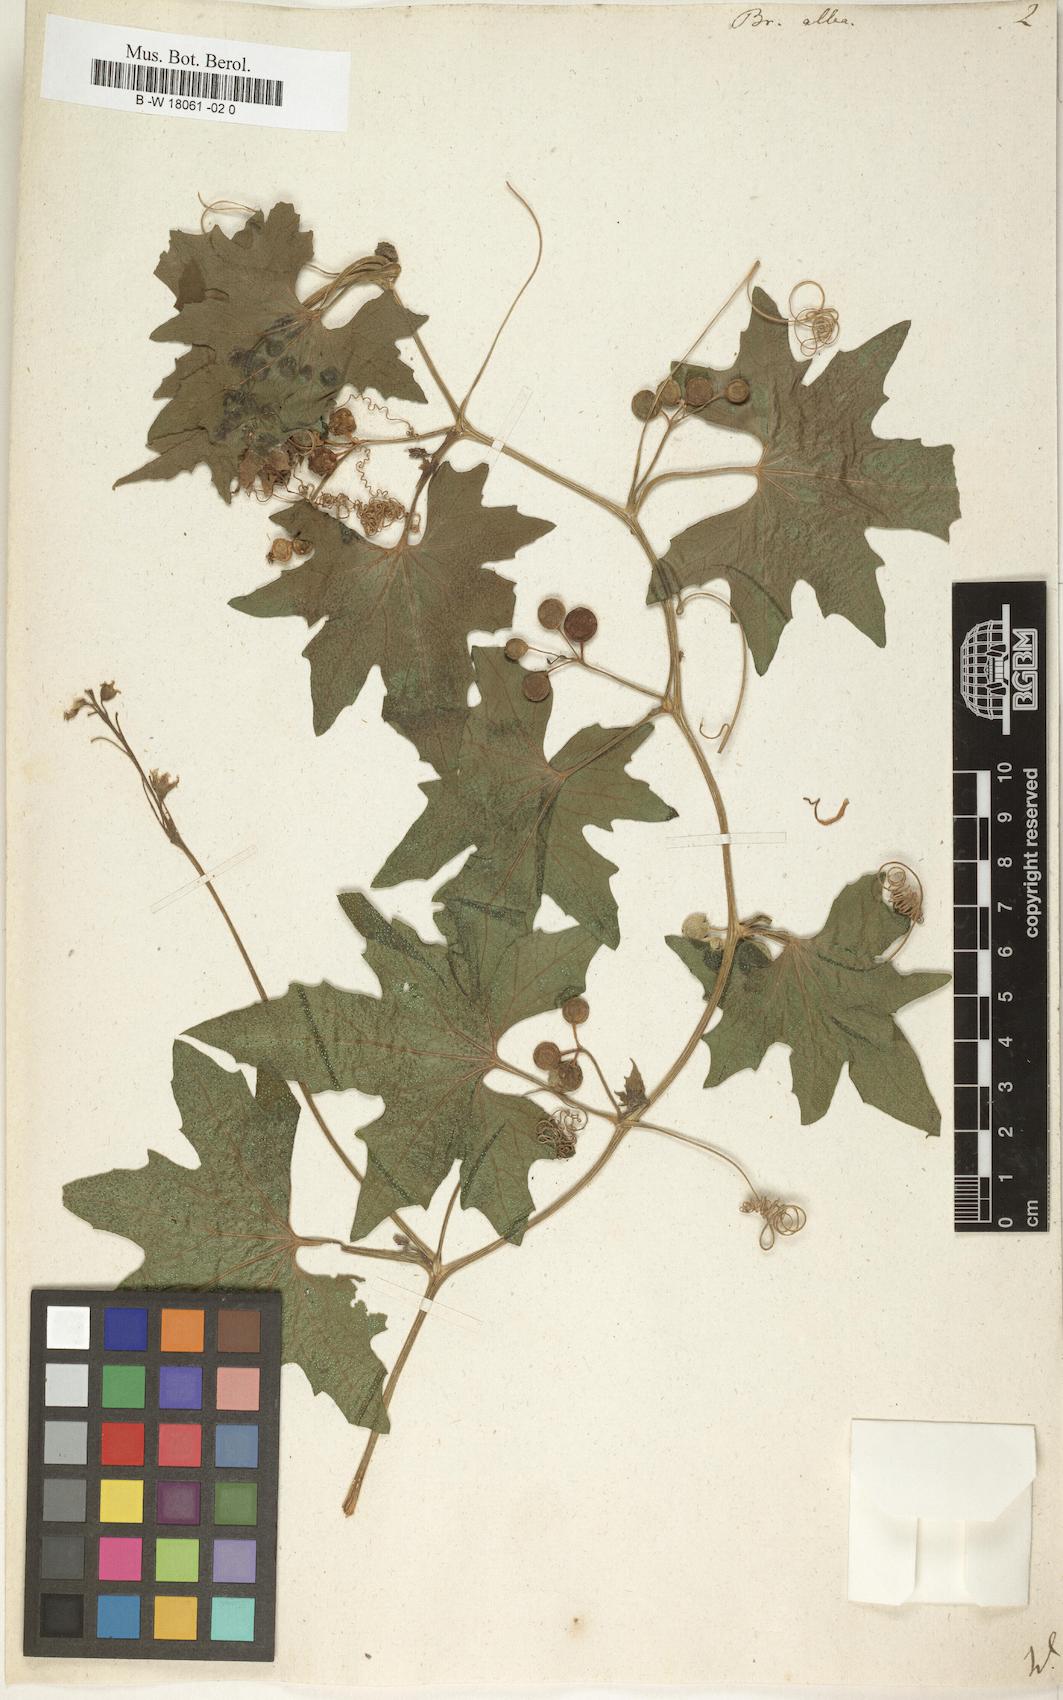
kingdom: Plantae
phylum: Tracheophyta
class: Magnoliopsida
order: Cucurbitales
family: Cucurbitaceae
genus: Bryonia
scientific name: Bryonia alba
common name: White bryony
